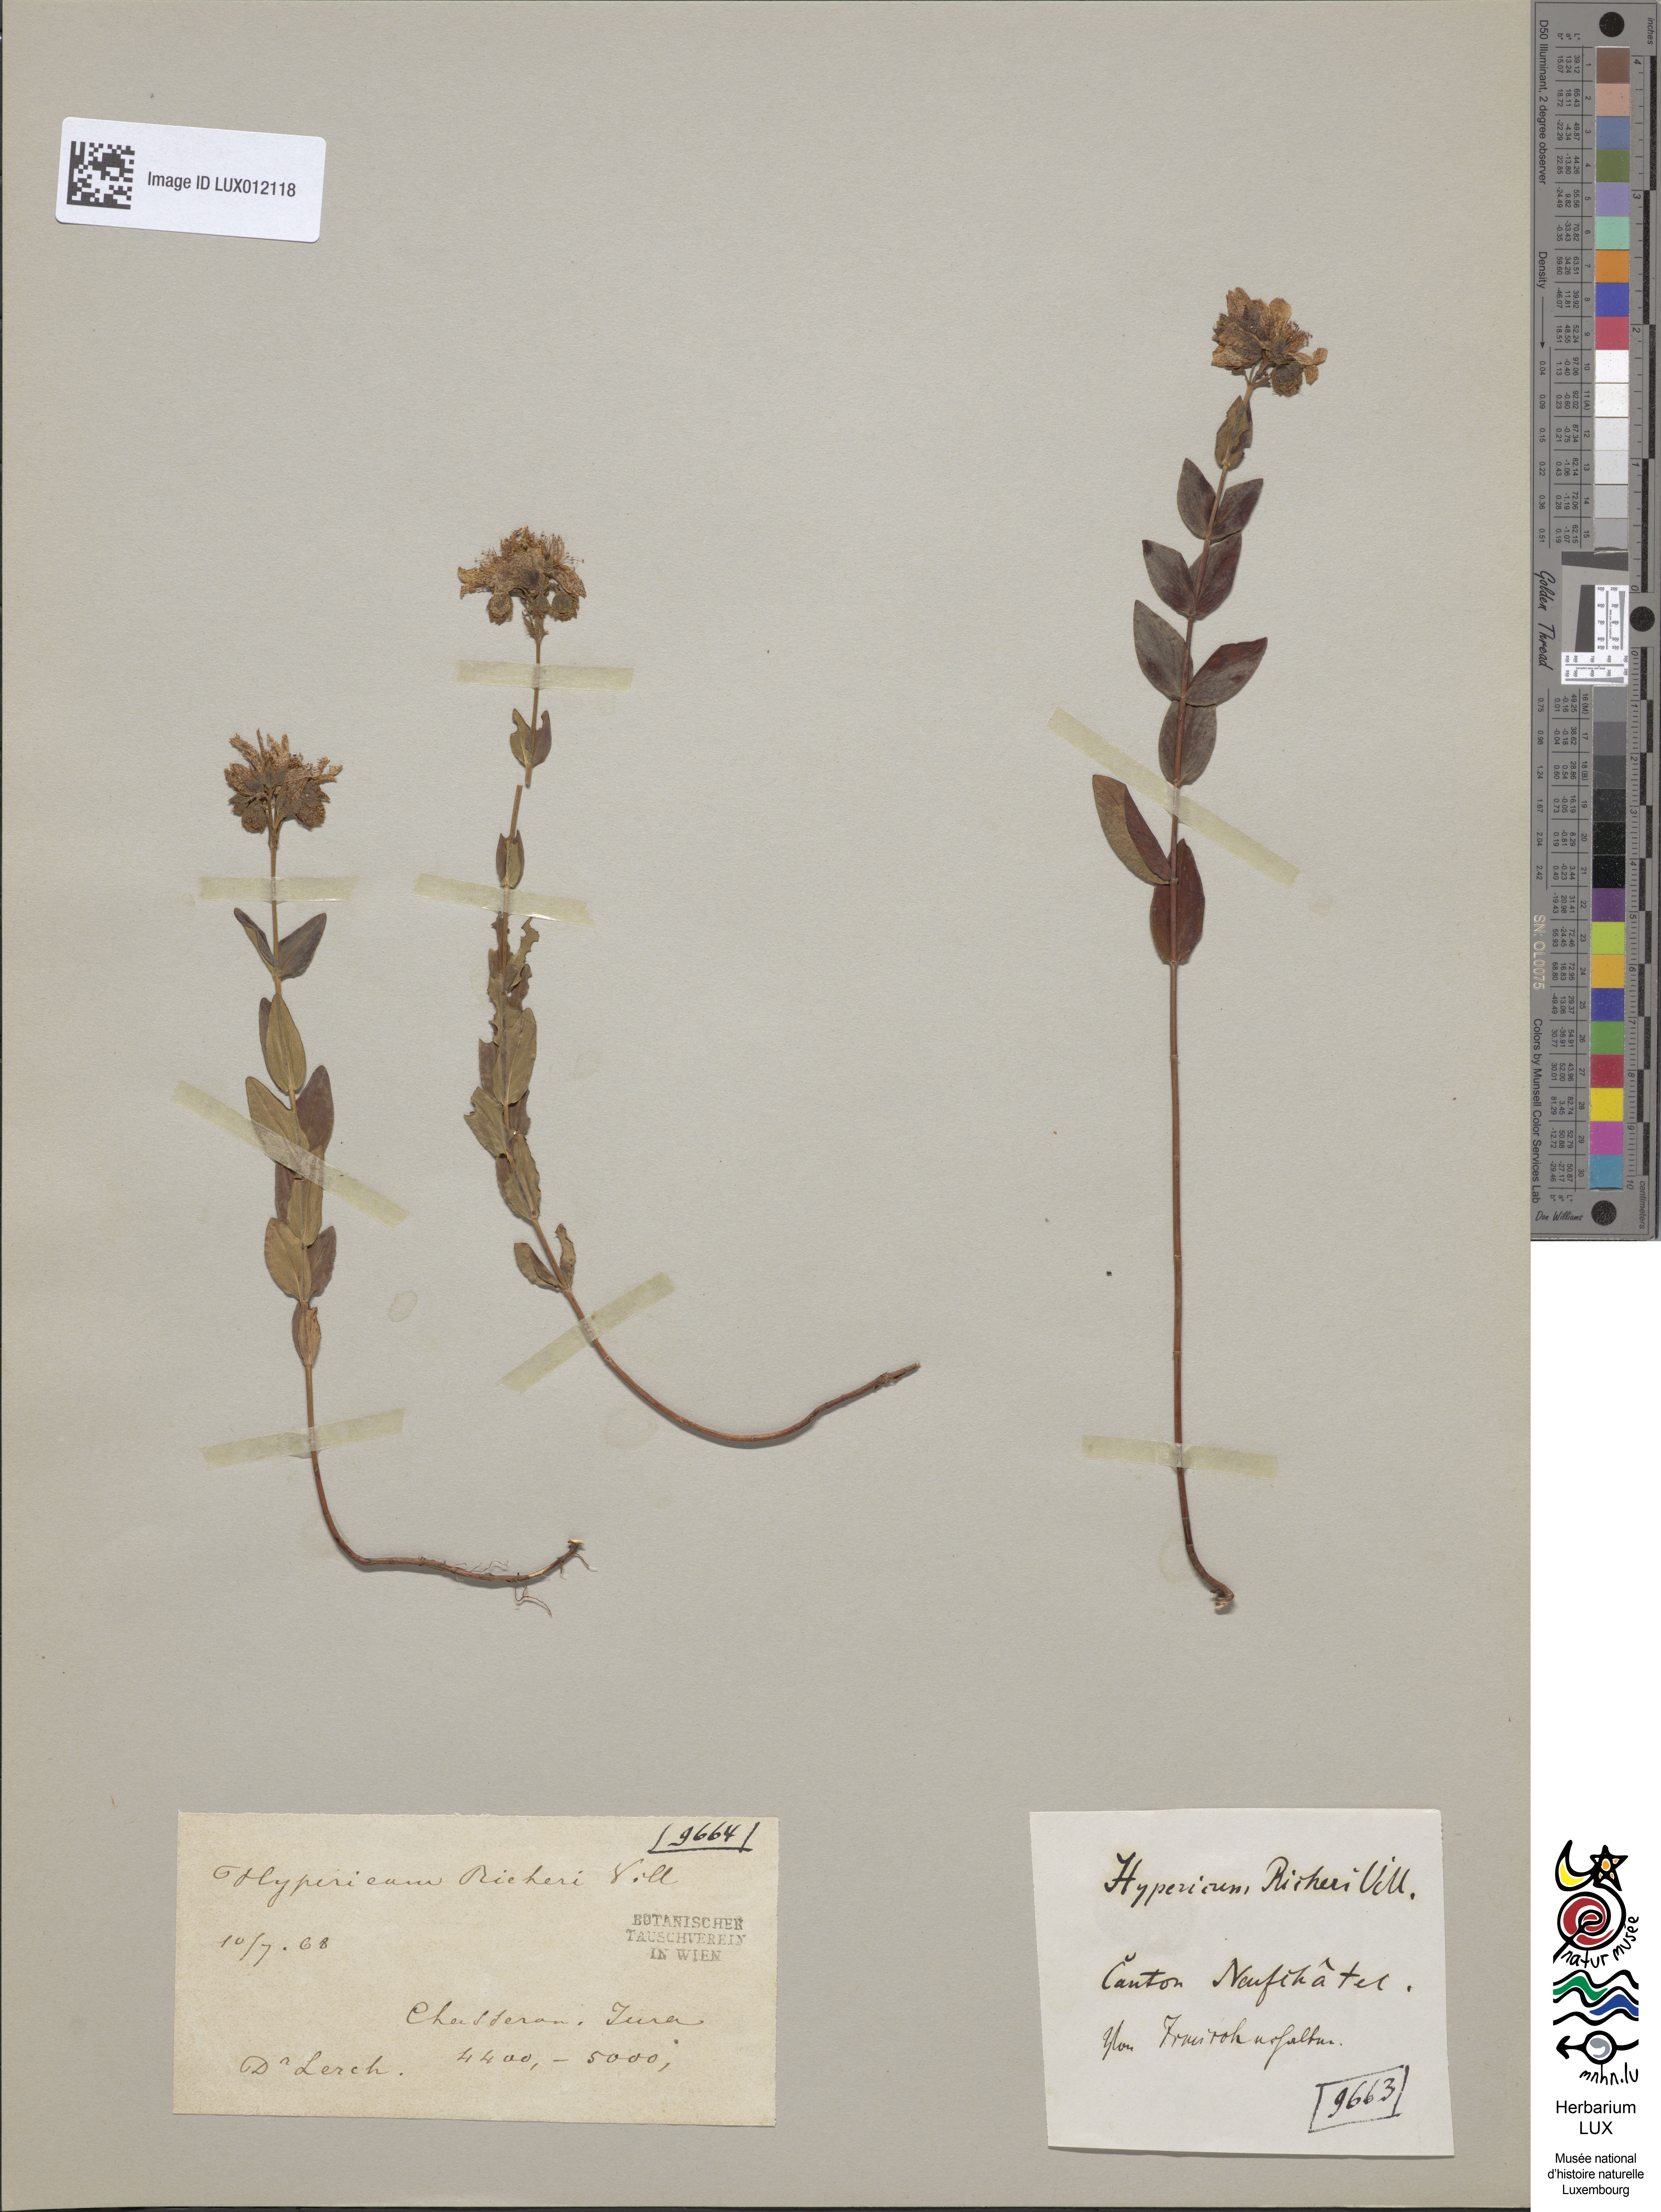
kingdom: Plantae
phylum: Tracheophyta
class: Magnoliopsida
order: Malpighiales
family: Hypericaceae
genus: Hypericum
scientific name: Hypericum richeri
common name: Alpine st john's-wort
